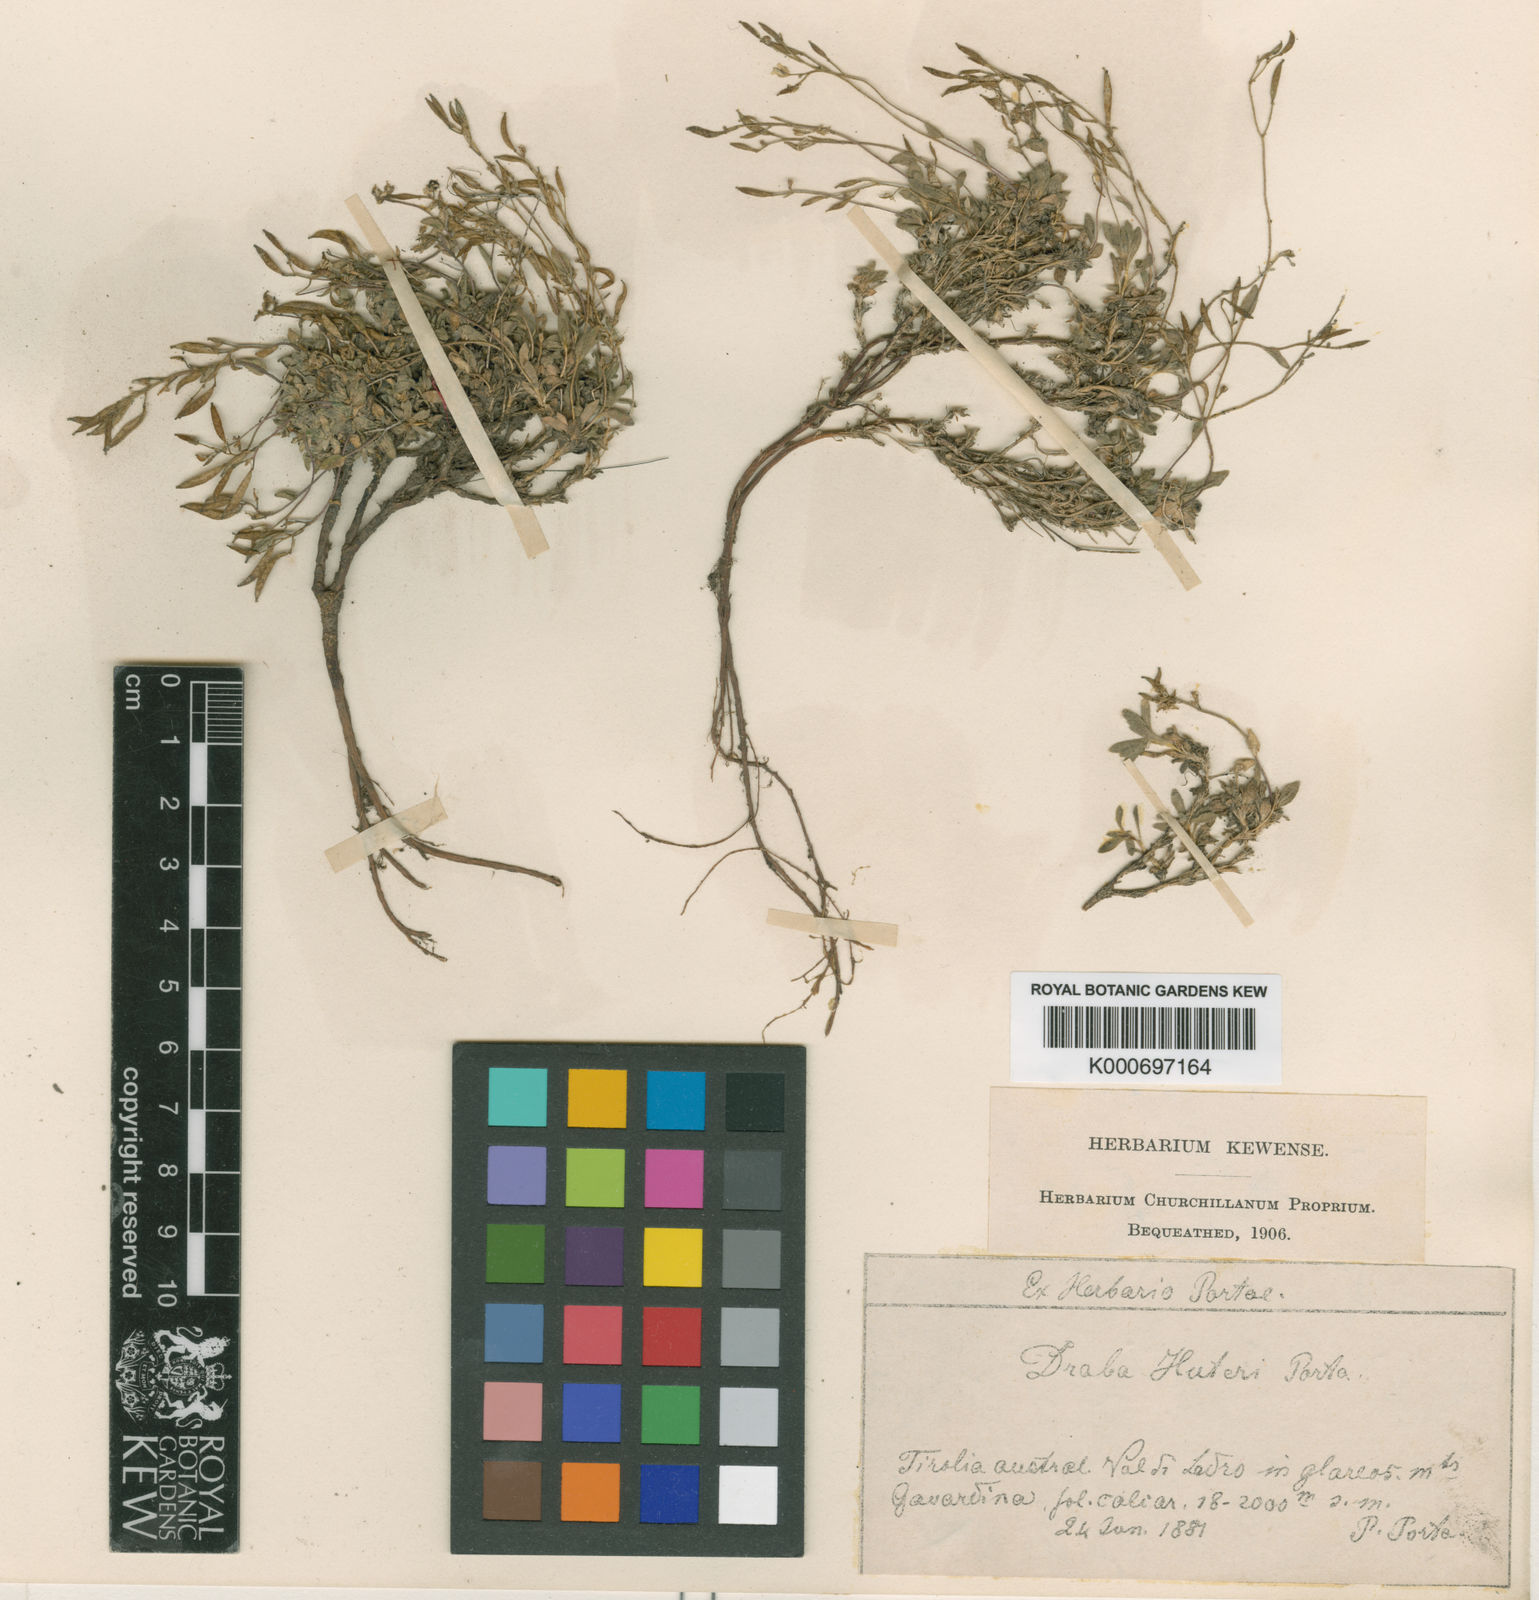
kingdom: Plantae
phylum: Tracheophyta
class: Magnoliopsida
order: Brassicales
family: Brassicaceae
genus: Draba
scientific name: Draba dubia
